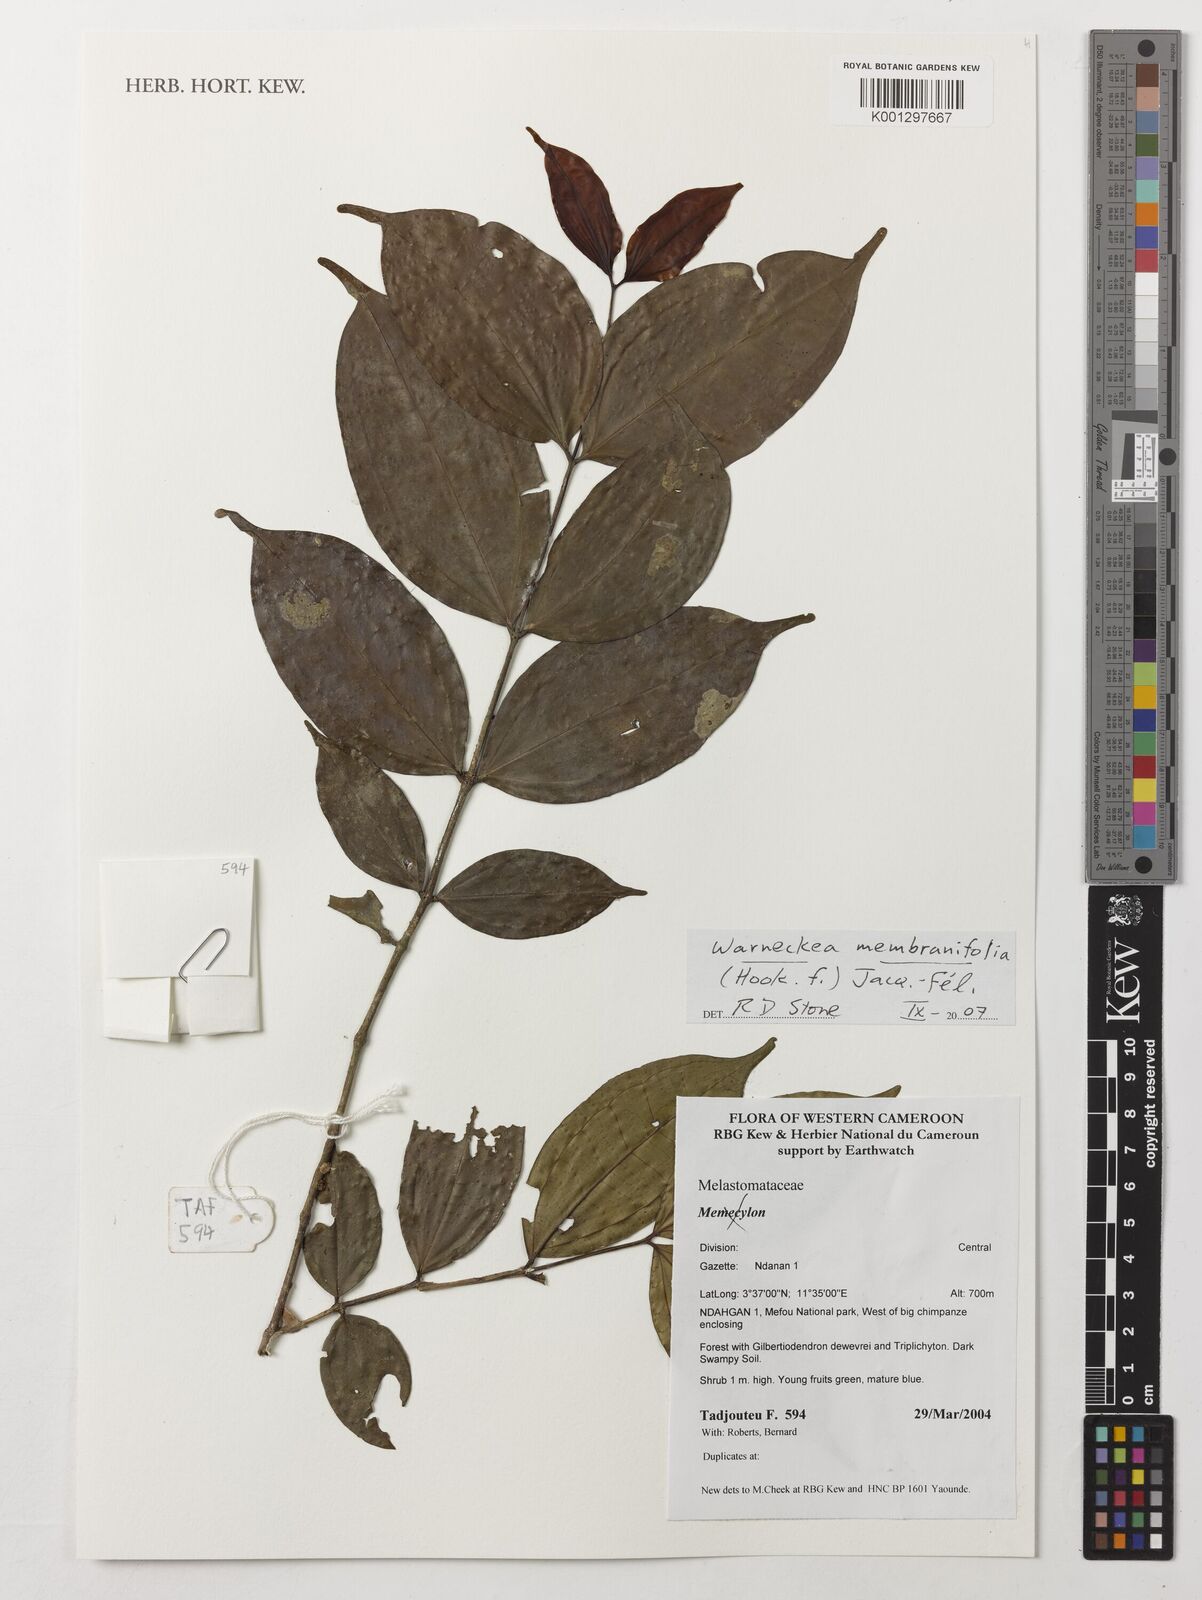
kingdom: Plantae
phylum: Tracheophyta
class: Magnoliopsida
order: Myrtales
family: Melastomataceae
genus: Warneckea
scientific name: Warneckea membranifolia
